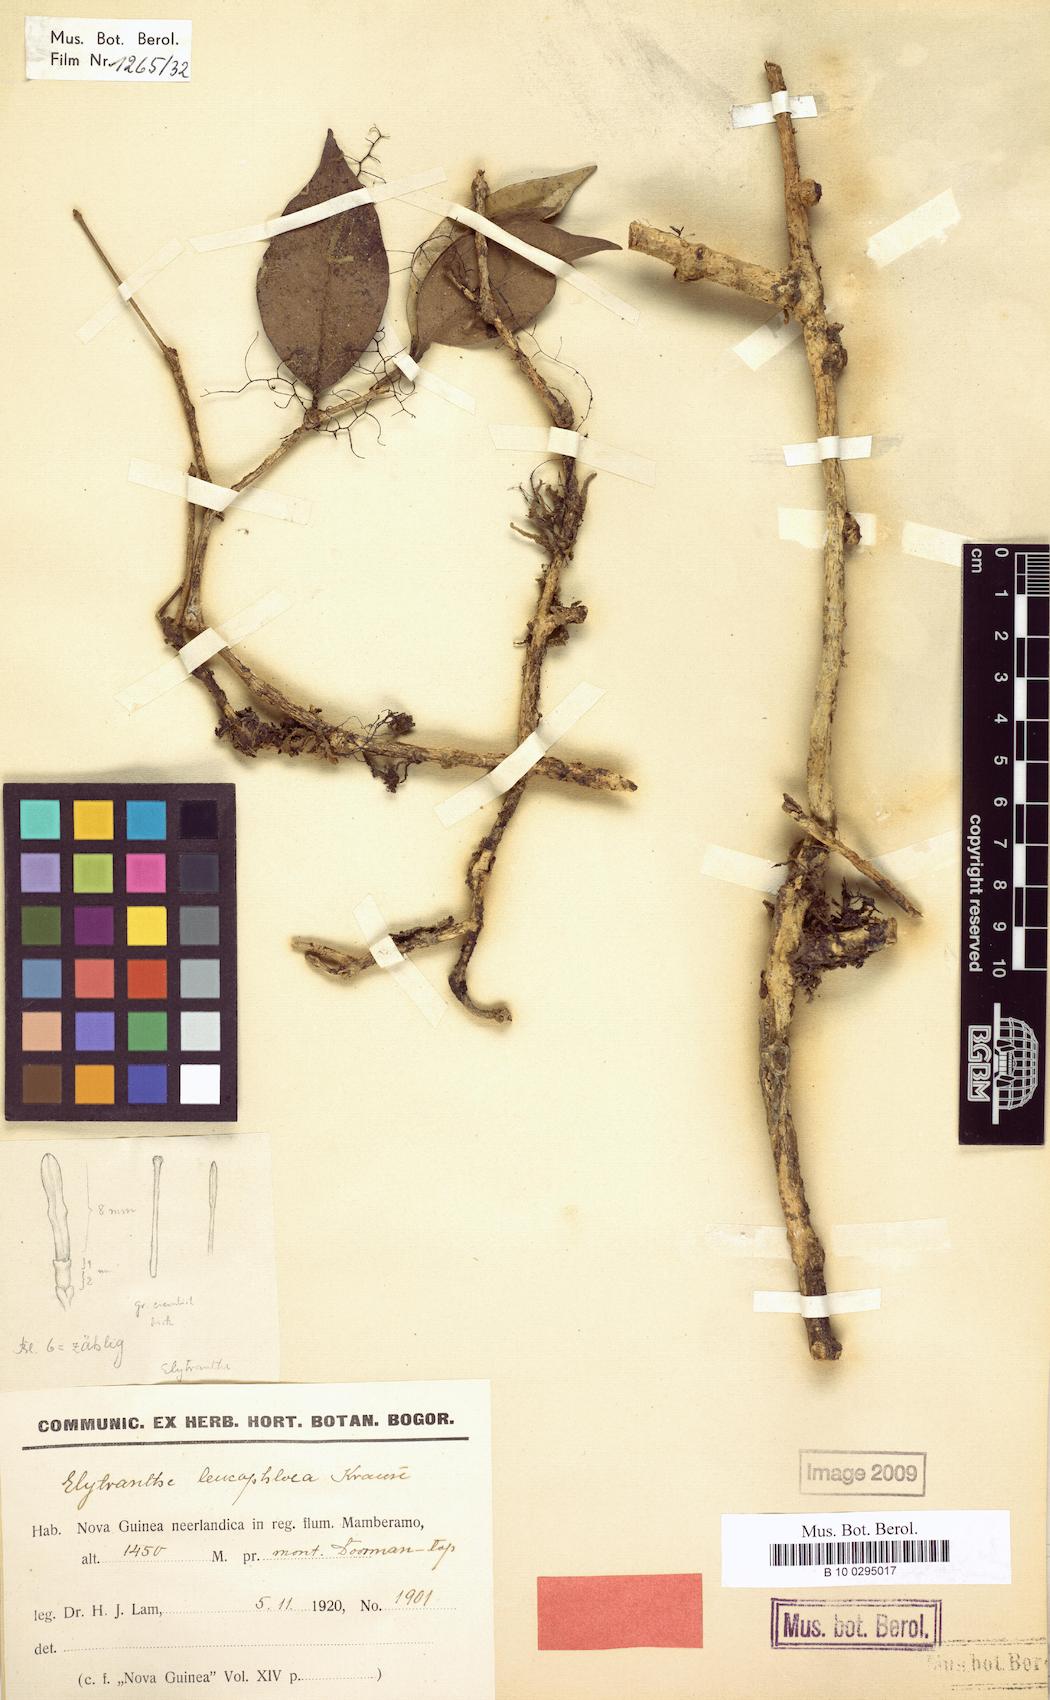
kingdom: Plantae
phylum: Tracheophyta
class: Magnoliopsida
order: Santalales
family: Loranthaceae
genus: Macrosolen
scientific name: Macrosolen cochinchinensis
